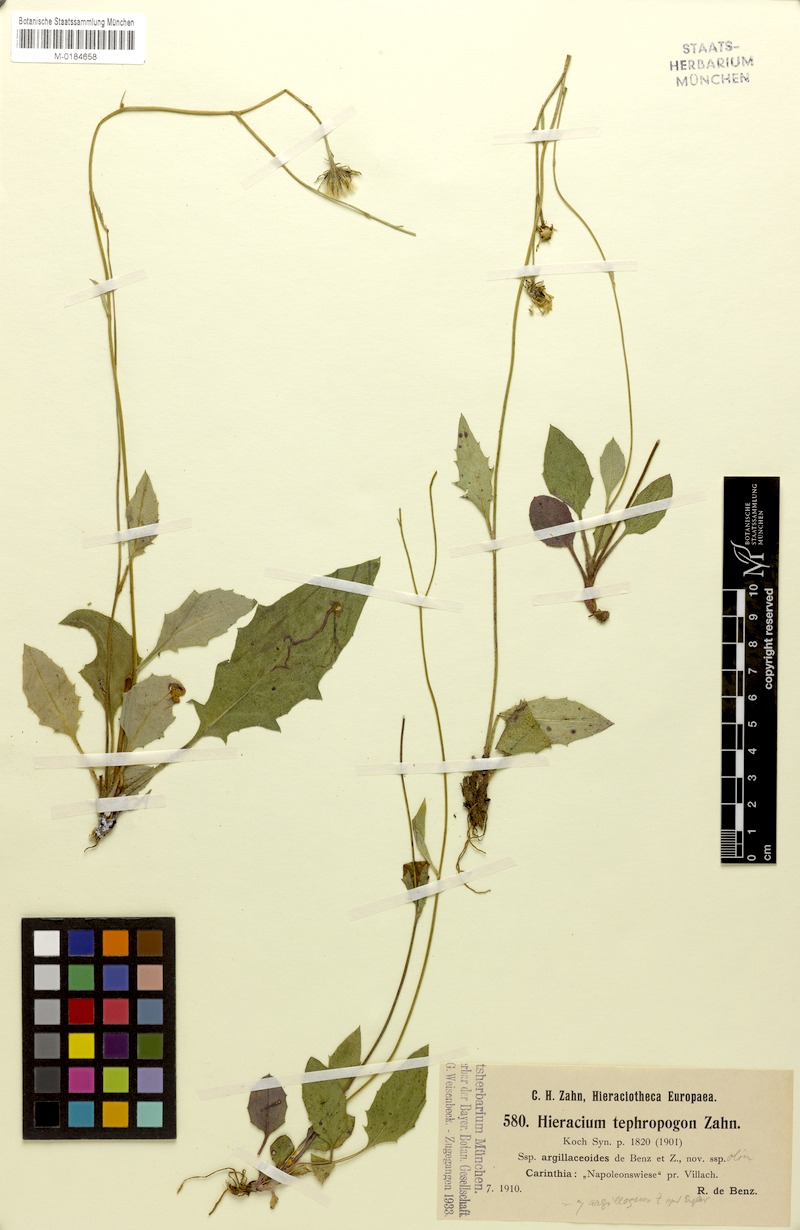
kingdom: Plantae
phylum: Tracheophyta
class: Magnoliopsida
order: Asterales
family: Asteraceae
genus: Hieracium
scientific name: Hieracium tephropogon
